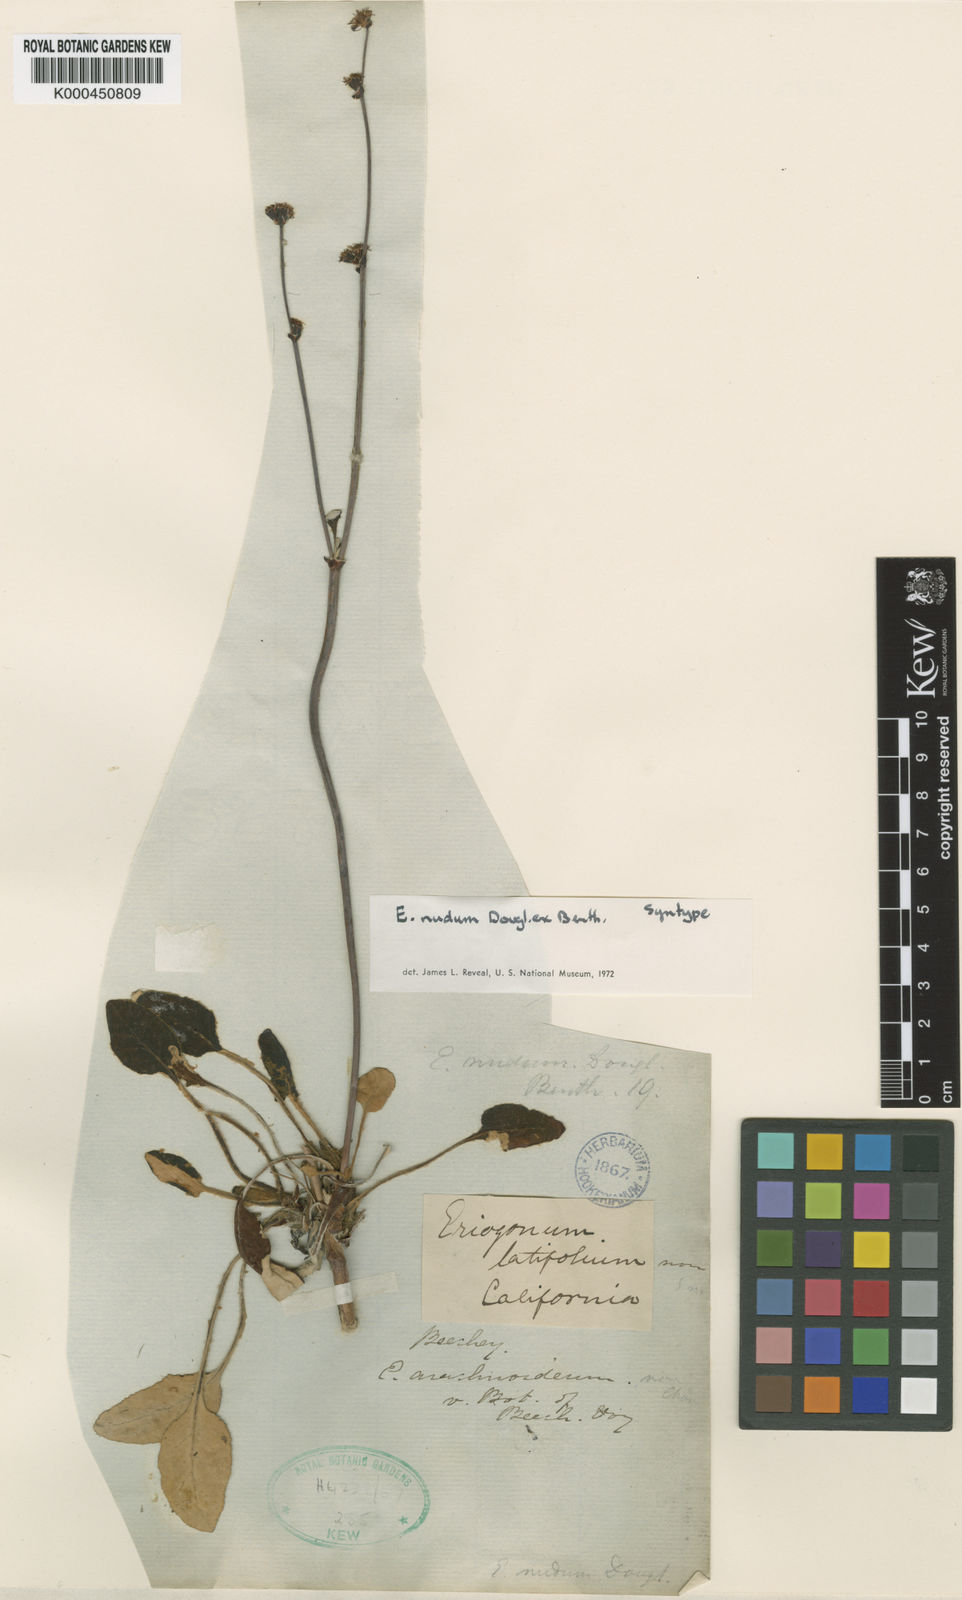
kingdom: Plantae
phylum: Tracheophyta
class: Magnoliopsida
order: Caryophyllales
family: Polygonaceae
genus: Eriogonum
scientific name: Eriogonum nudum
